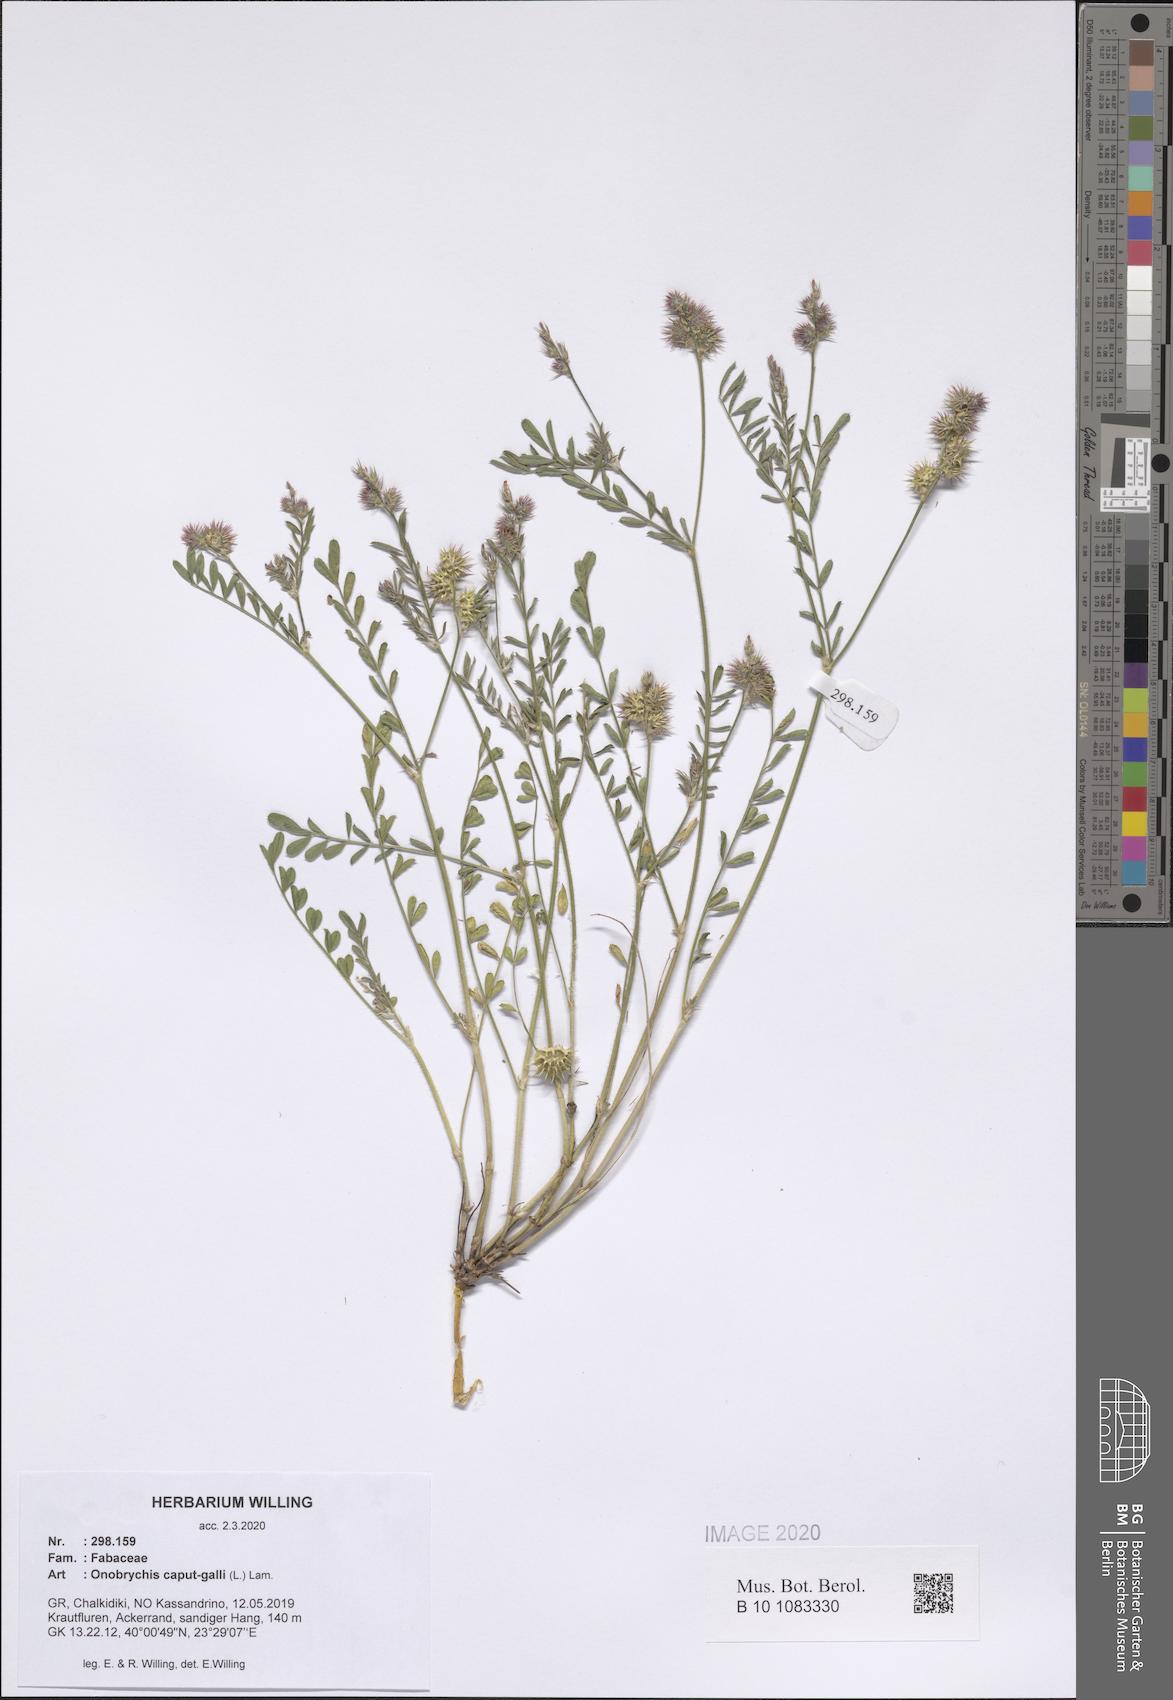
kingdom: Plantae
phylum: Tracheophyta
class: Magnoliopsida
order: Fabales
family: Fabaceae
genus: Onobrychis
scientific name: Onobrychis caput-galli
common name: Cockscomb sainfoin
